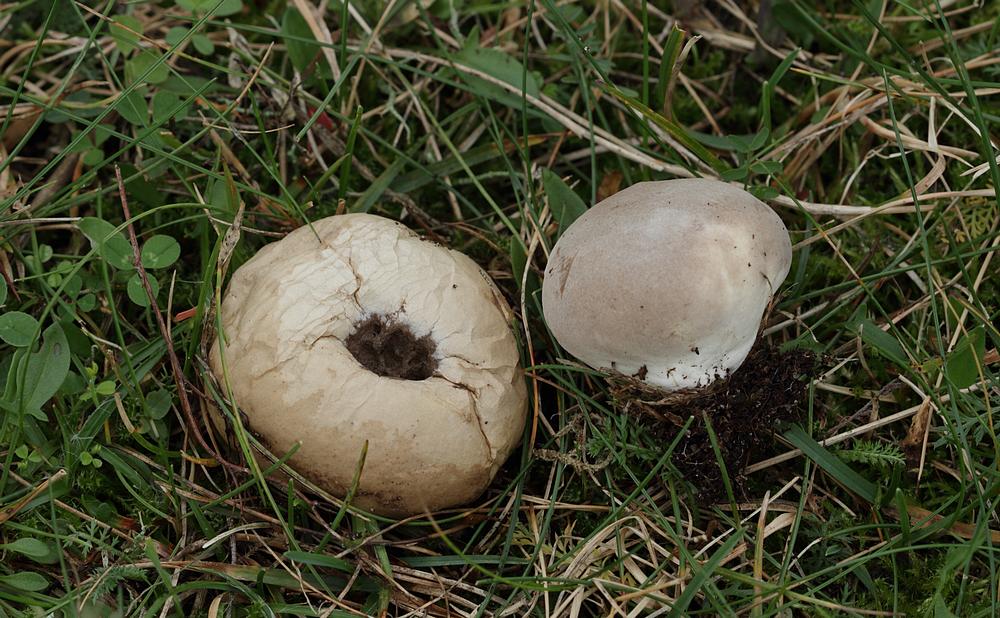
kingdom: Fungi
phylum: Basidiomycota
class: Agaricomycetes
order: Agaricales
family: Lycoperdaceae
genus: Lycoperdon
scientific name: Lycoperdon lividum
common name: mark-støvbold
